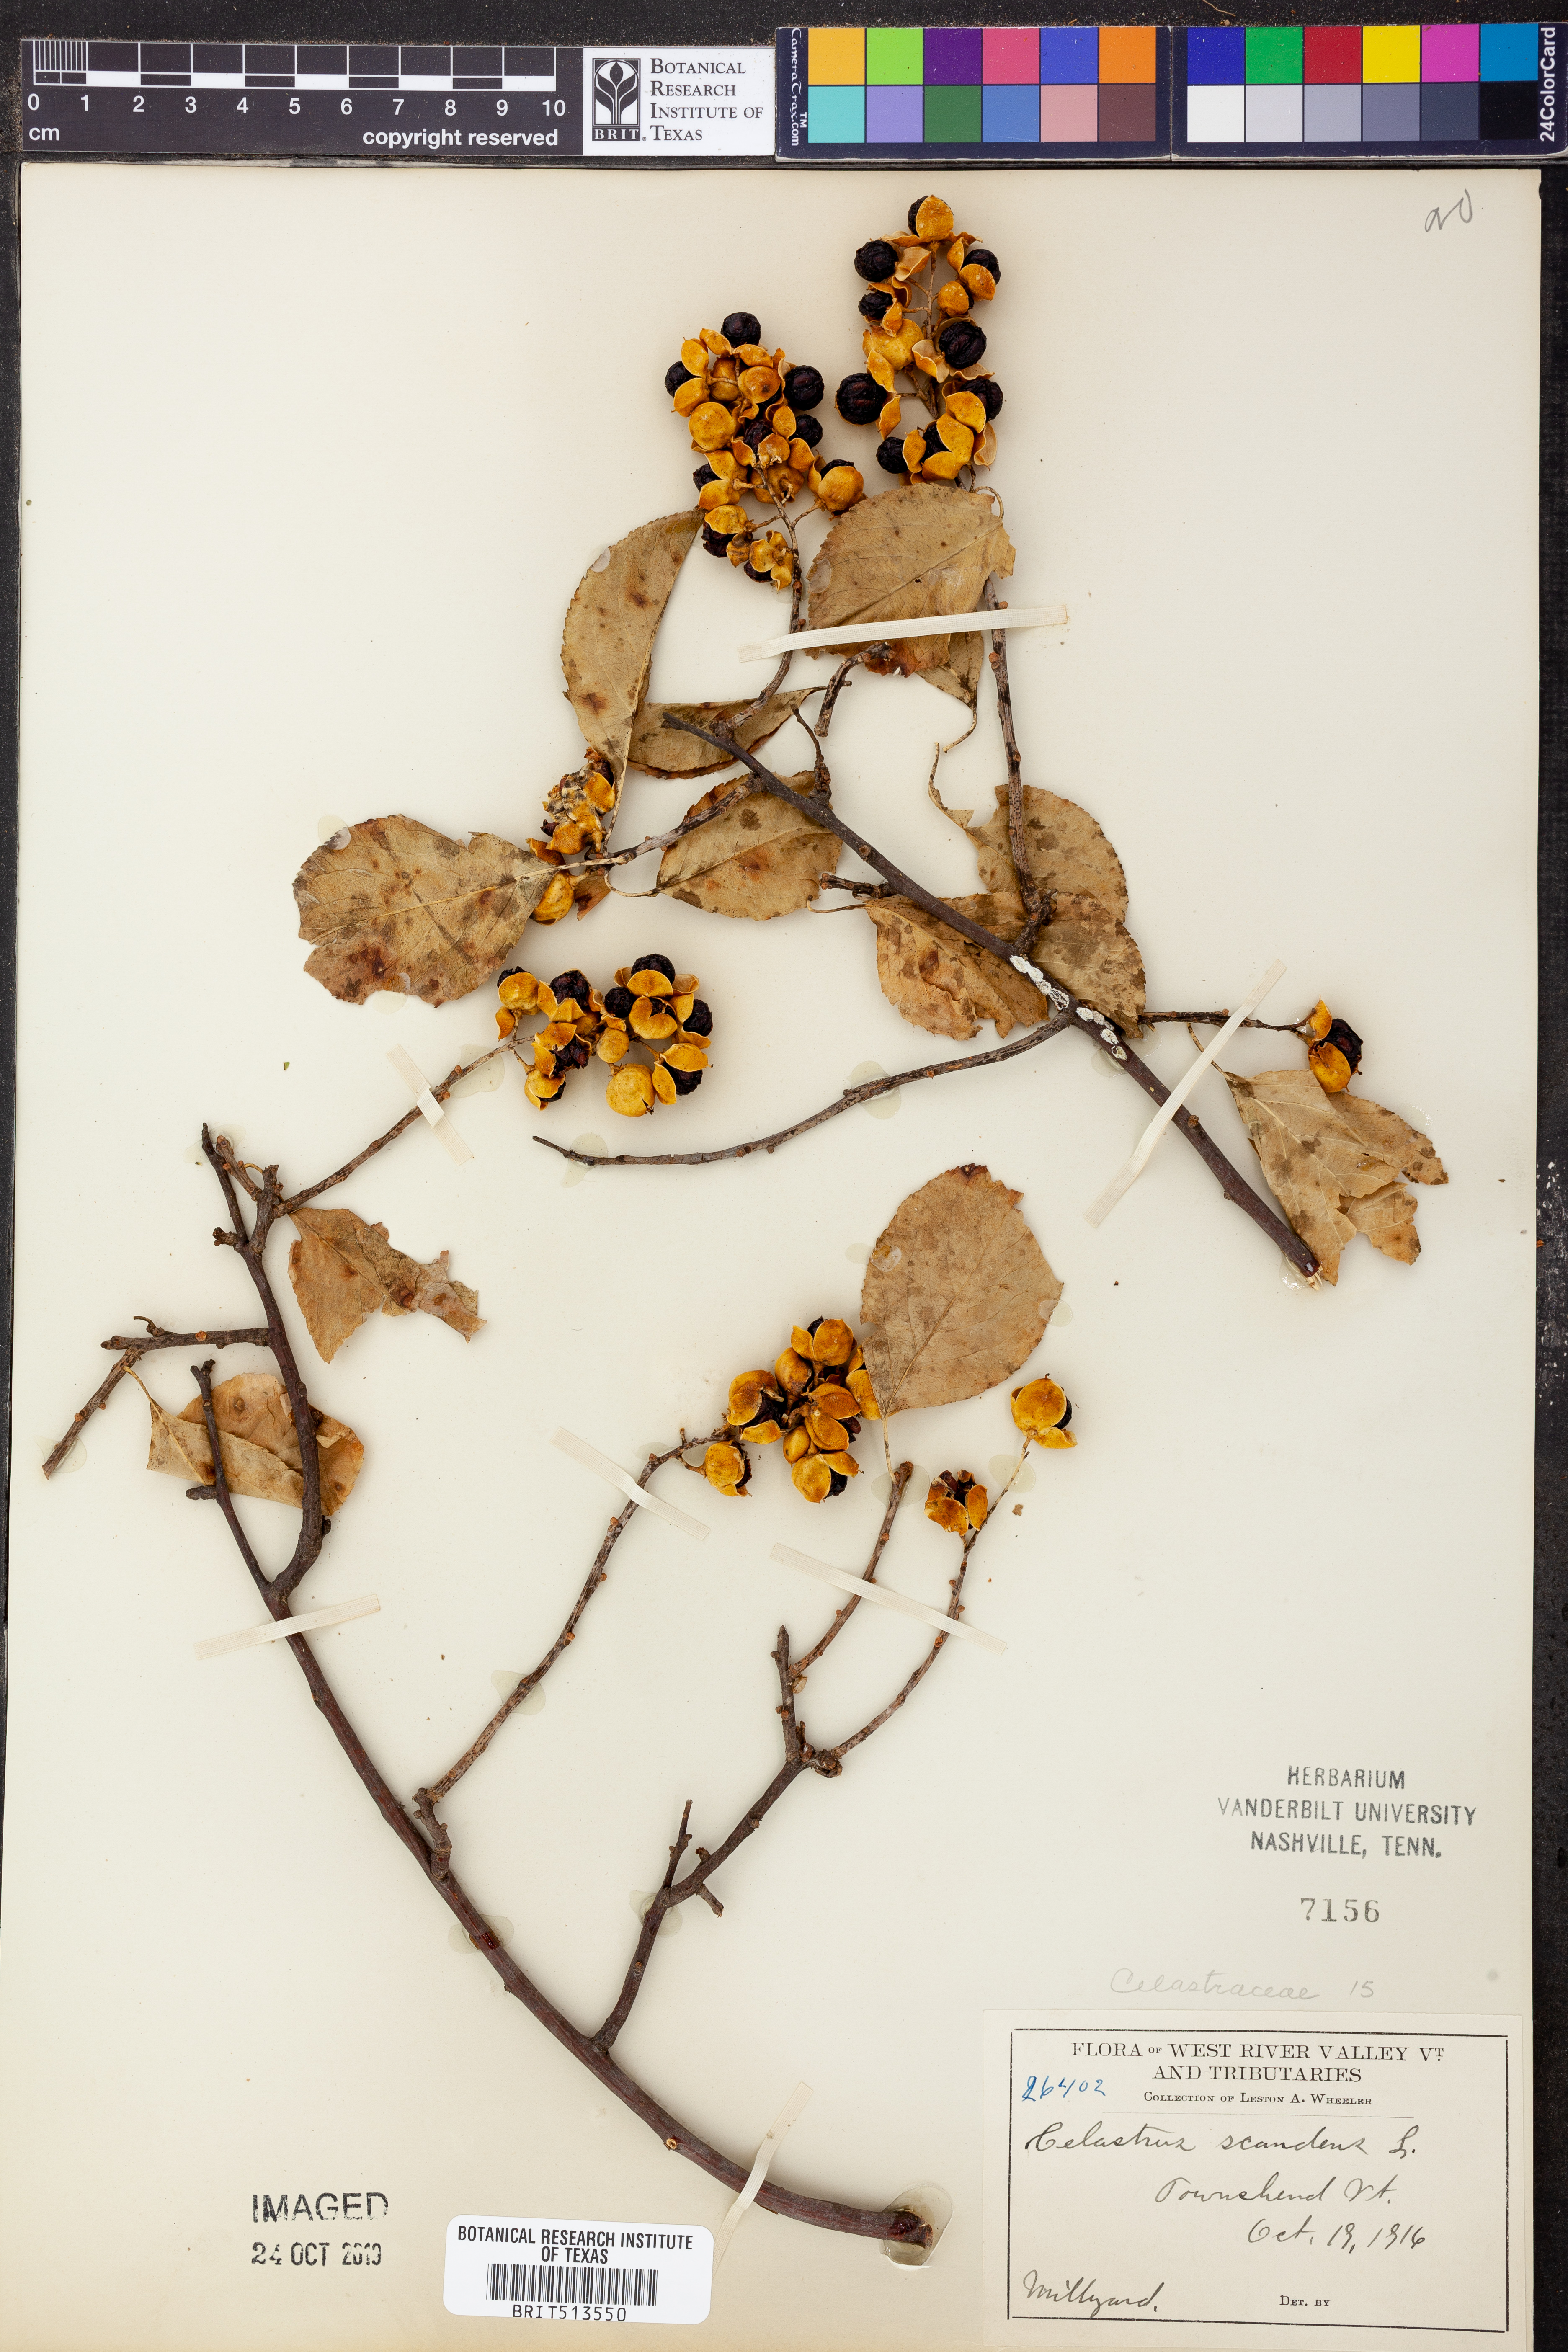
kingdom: Plantae
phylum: Tracheophyta
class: Magnoliopsida
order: Celastrales
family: Celastraceae
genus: Celastrus
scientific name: Celastrus scandens
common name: American bittersweet
